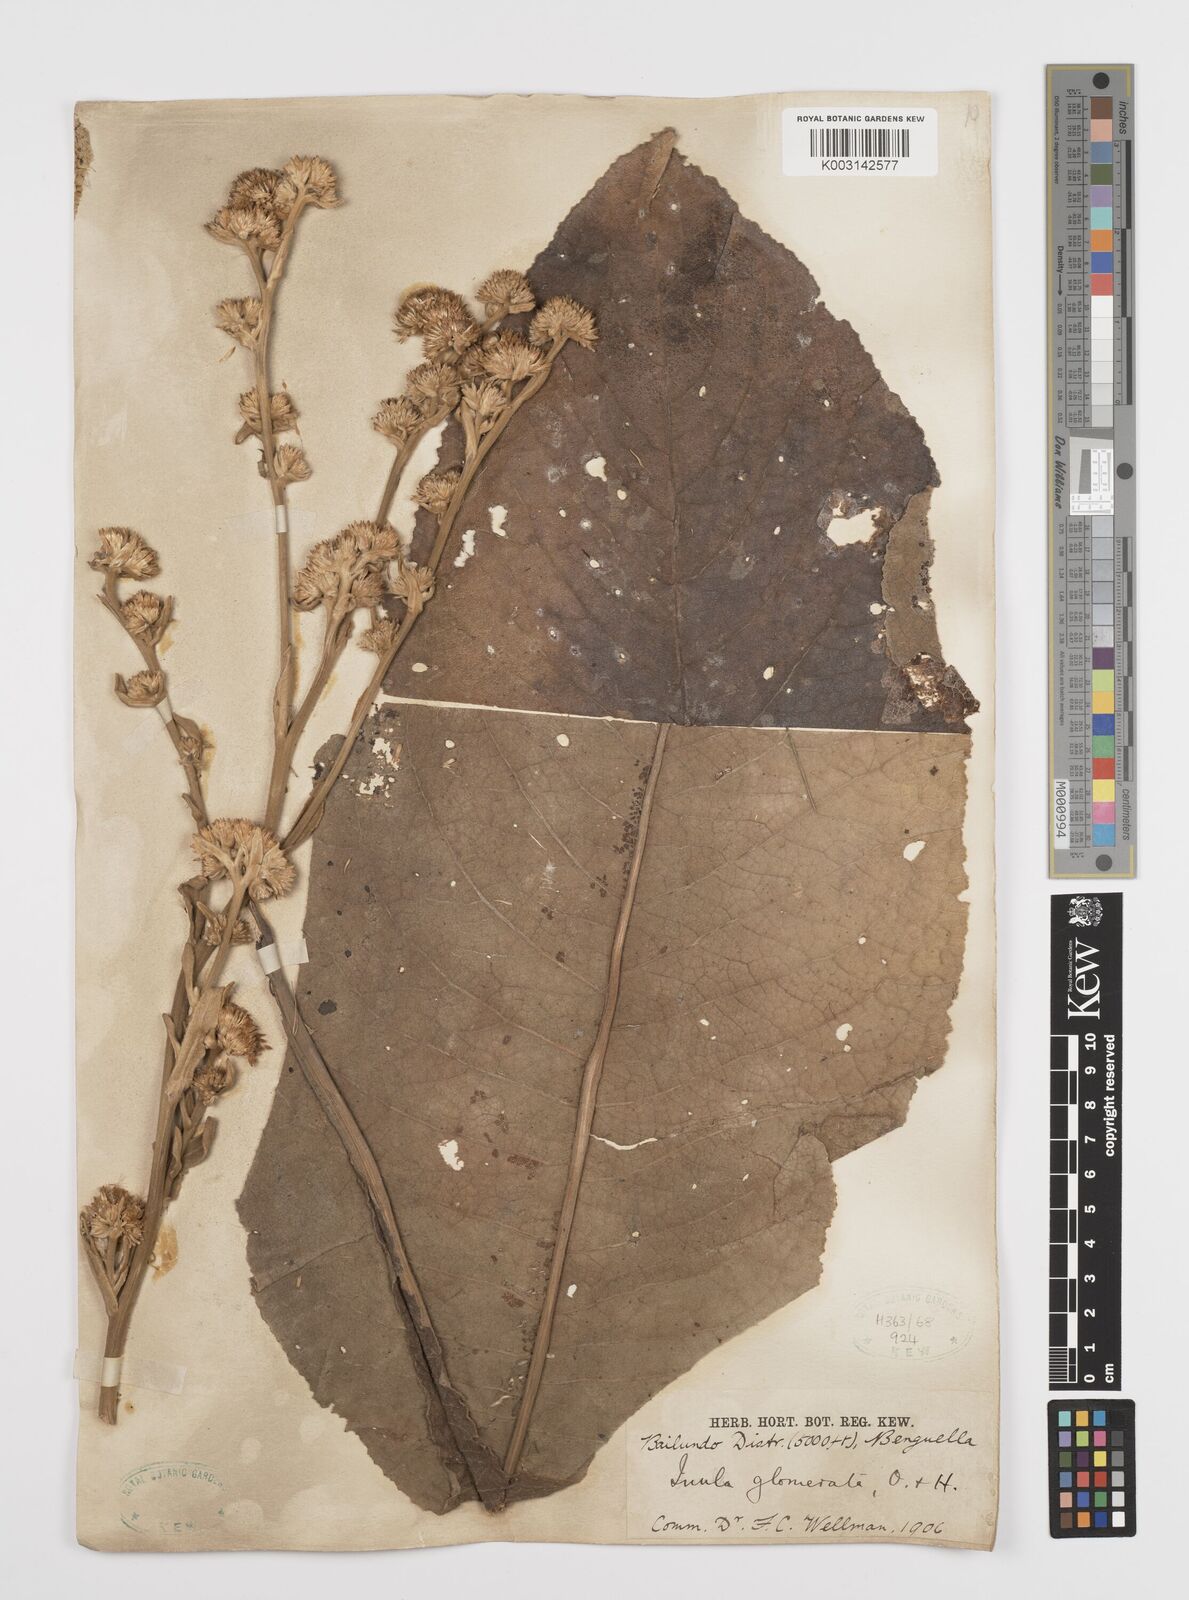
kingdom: Plantae
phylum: Tracheophyta
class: Magnoliopsida
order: Asterales
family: Asteraceae
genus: Inula
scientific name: Inula glomerata
